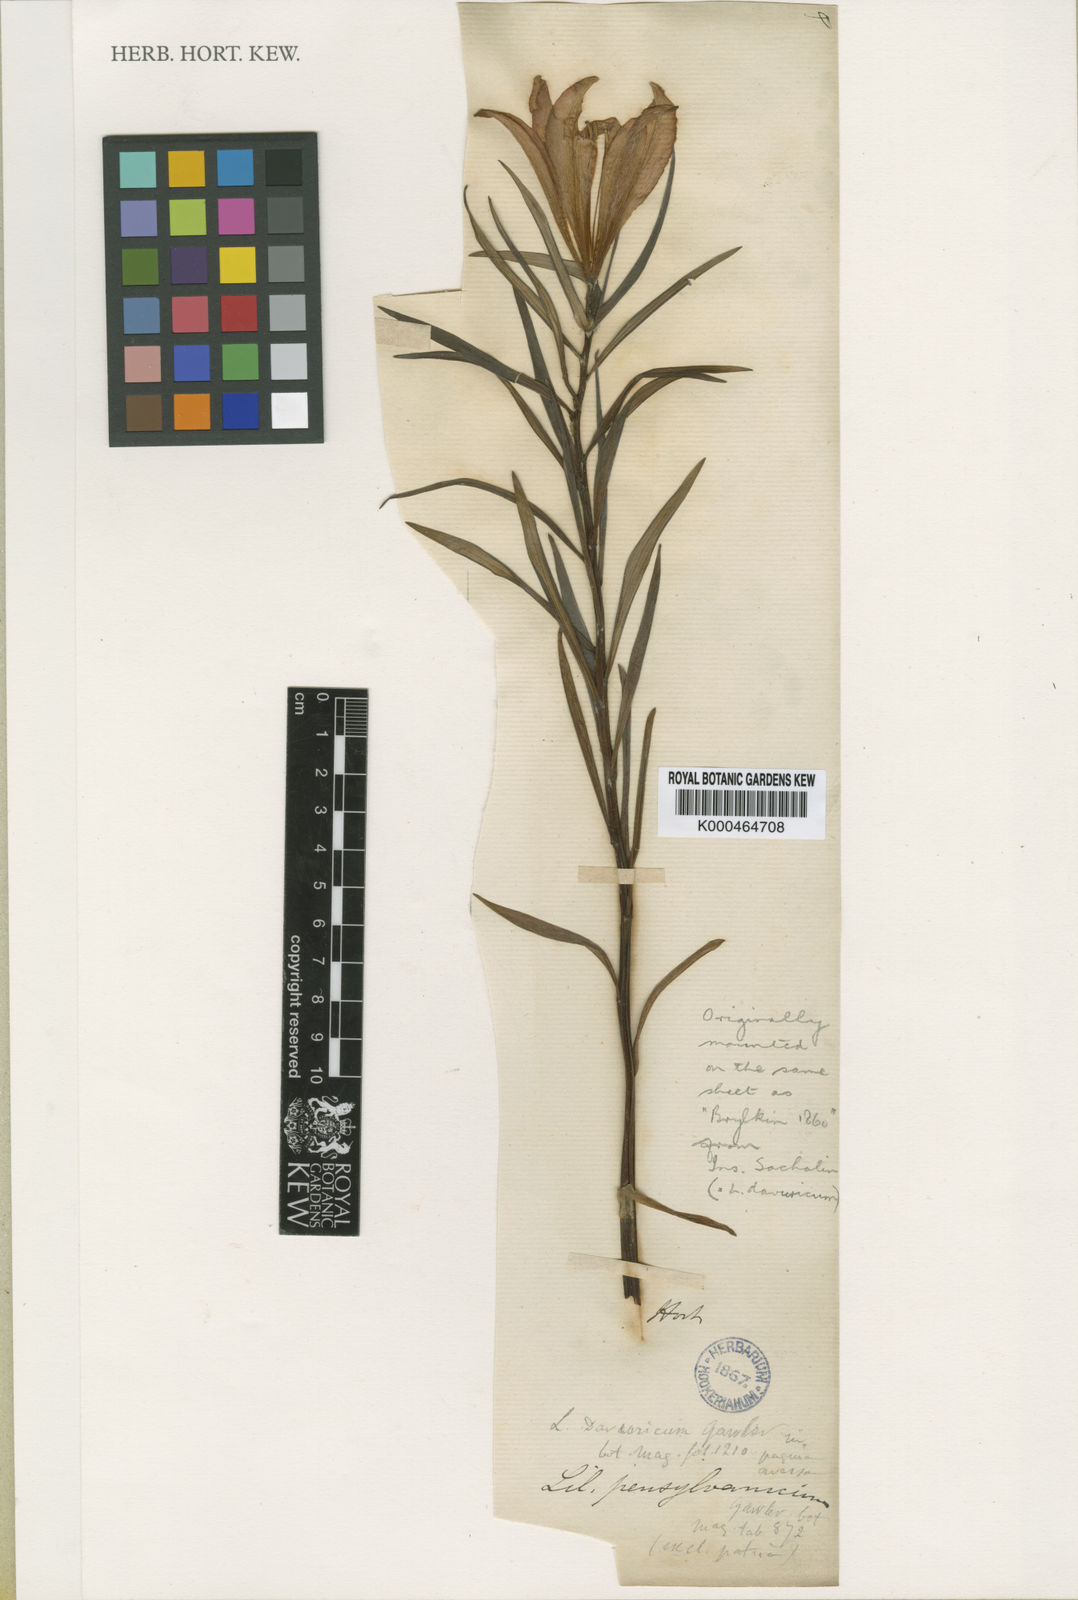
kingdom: Plantae
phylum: Tracheophyta
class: Liliopsida
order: Liliales
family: Liliaceae
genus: Lilium
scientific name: Lilium
